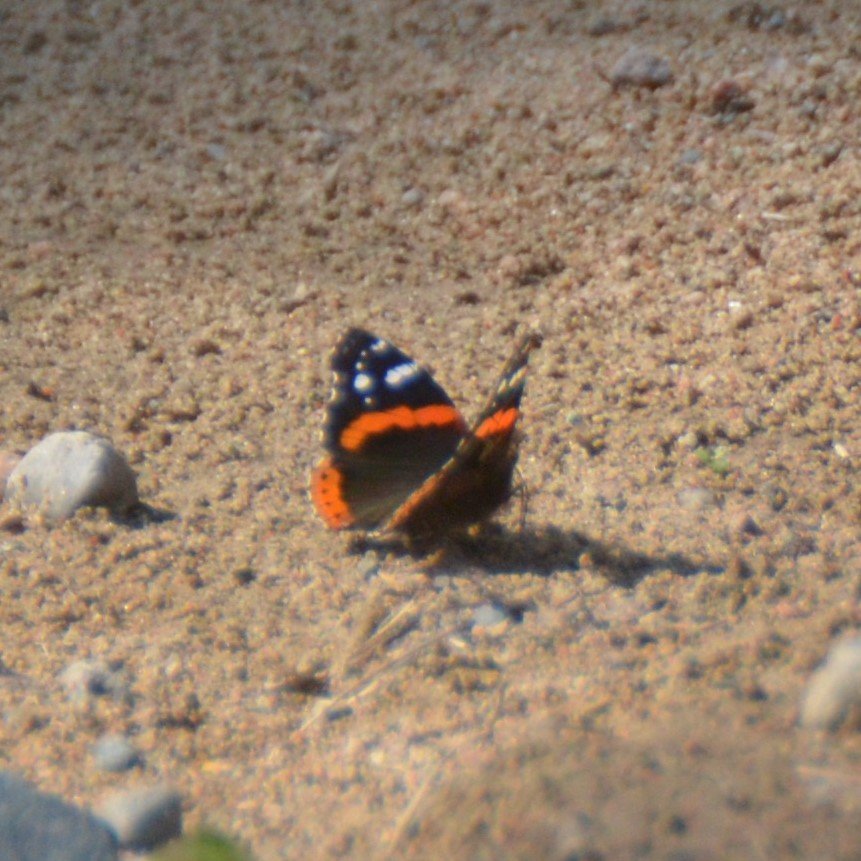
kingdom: Animalia
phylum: Arthropoda
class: Insecta
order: Lepidoptera
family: Nymphalidae
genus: Vanessa
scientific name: Vanessa atalanta
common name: Red Admiral
